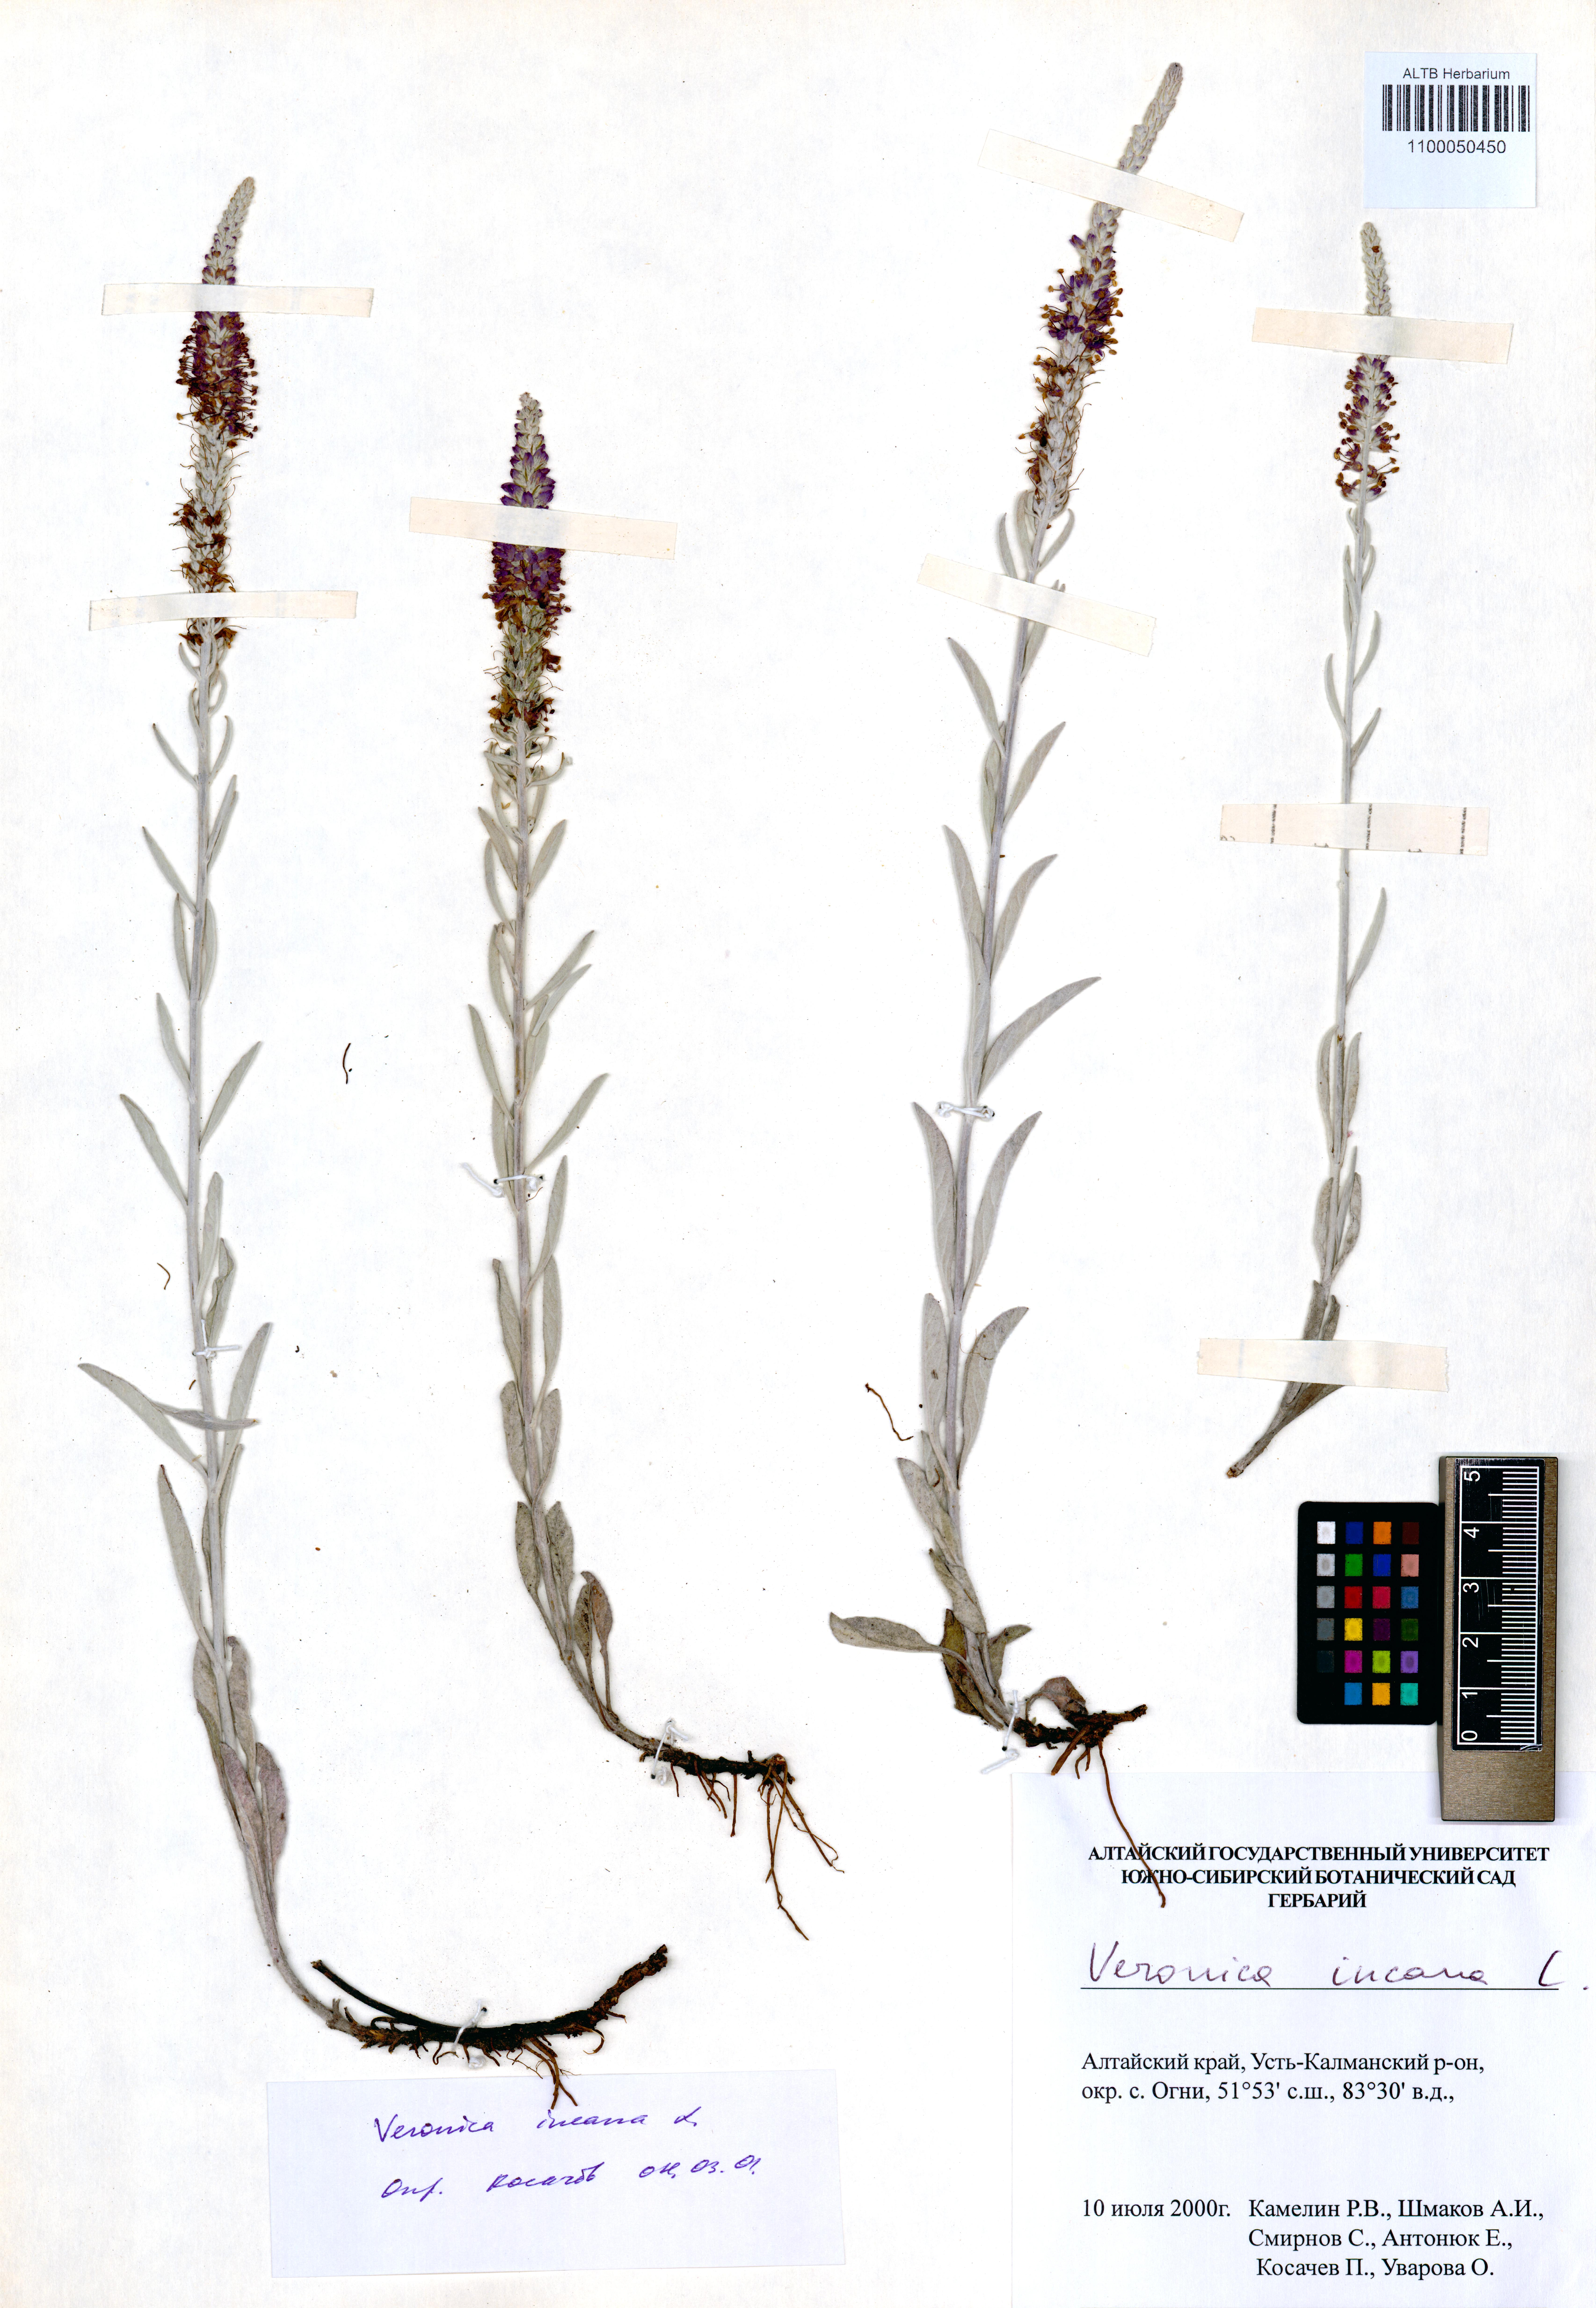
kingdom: Plantae
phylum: Tracheophyta
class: Magnoliopsida
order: Lamiales
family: Plantaginaceae
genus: Veronica
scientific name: Veronica incana
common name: Silver speedwell
